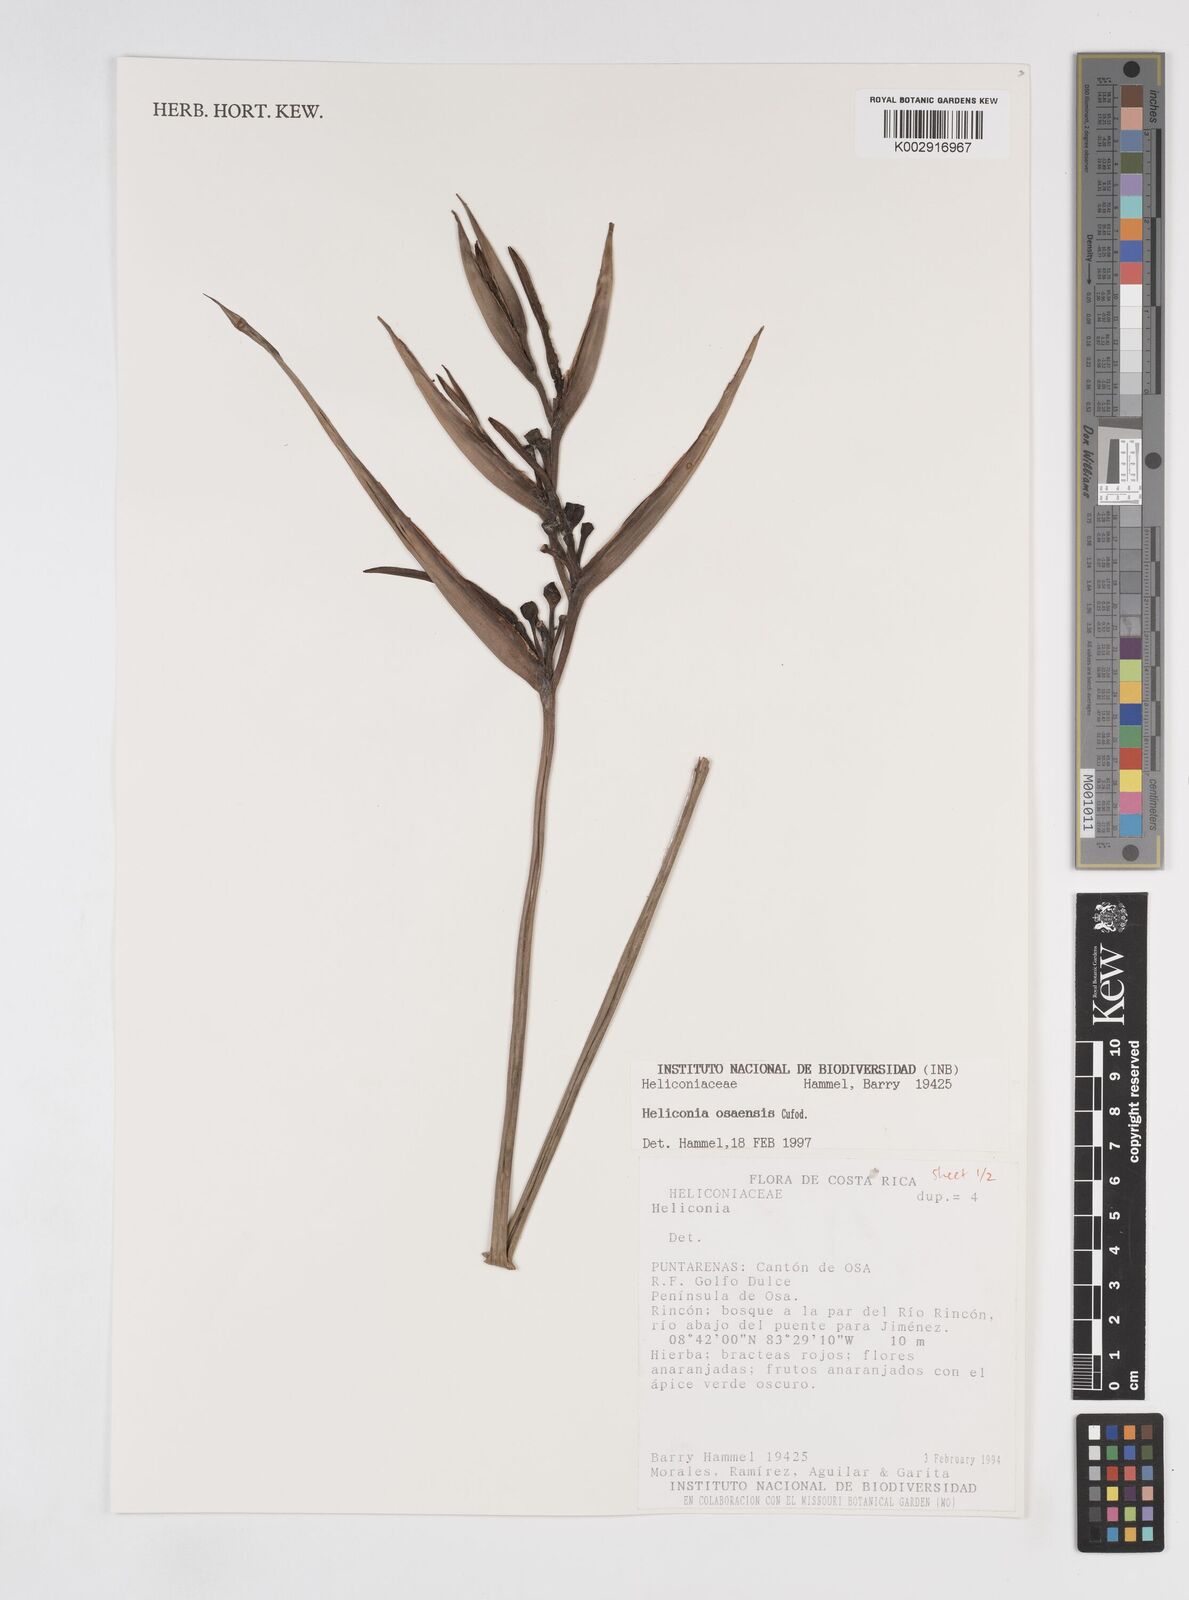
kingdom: Plantae
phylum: Tracheophyta
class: Liliopsida
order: Zingiberales
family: Heliconiaceae
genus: Heliconia
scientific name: Heliconia osaensis
